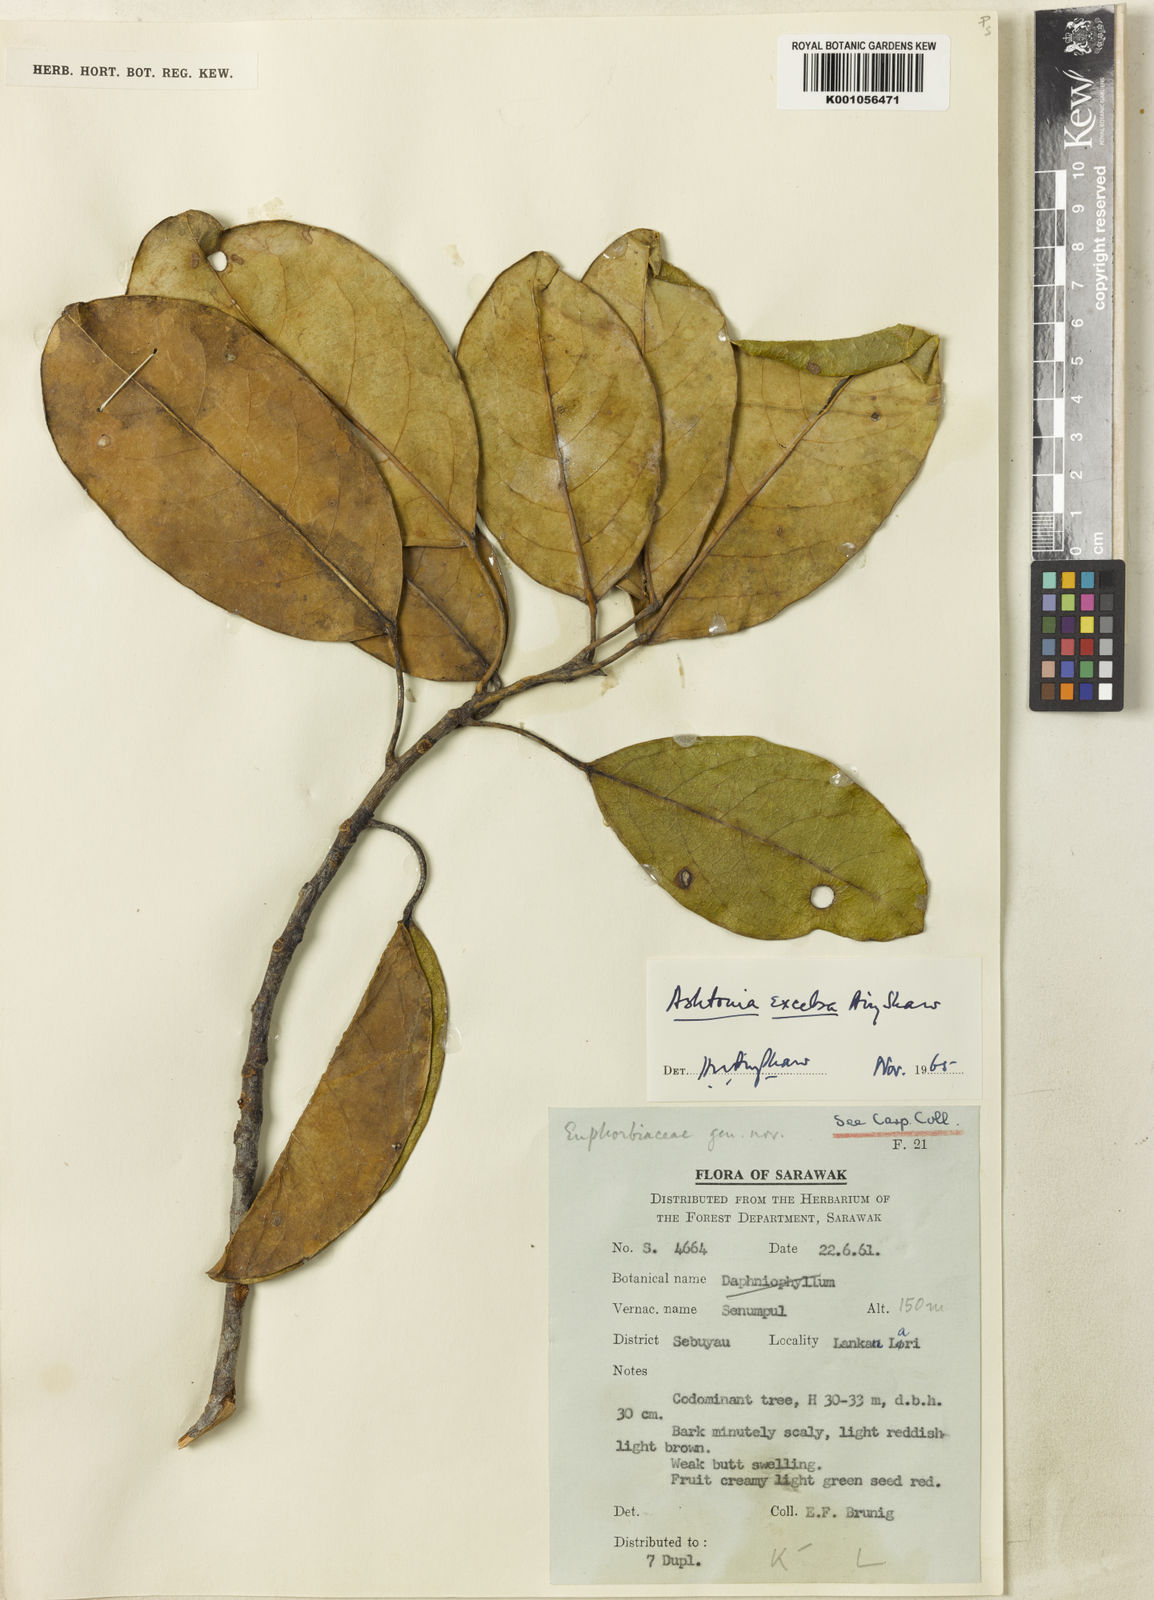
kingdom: Plantae
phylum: Tracheophyta
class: Magnoliopsida
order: Malpighiales
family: Phyllanthaceae
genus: Ashtonia
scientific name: Ashtonia excelsa
